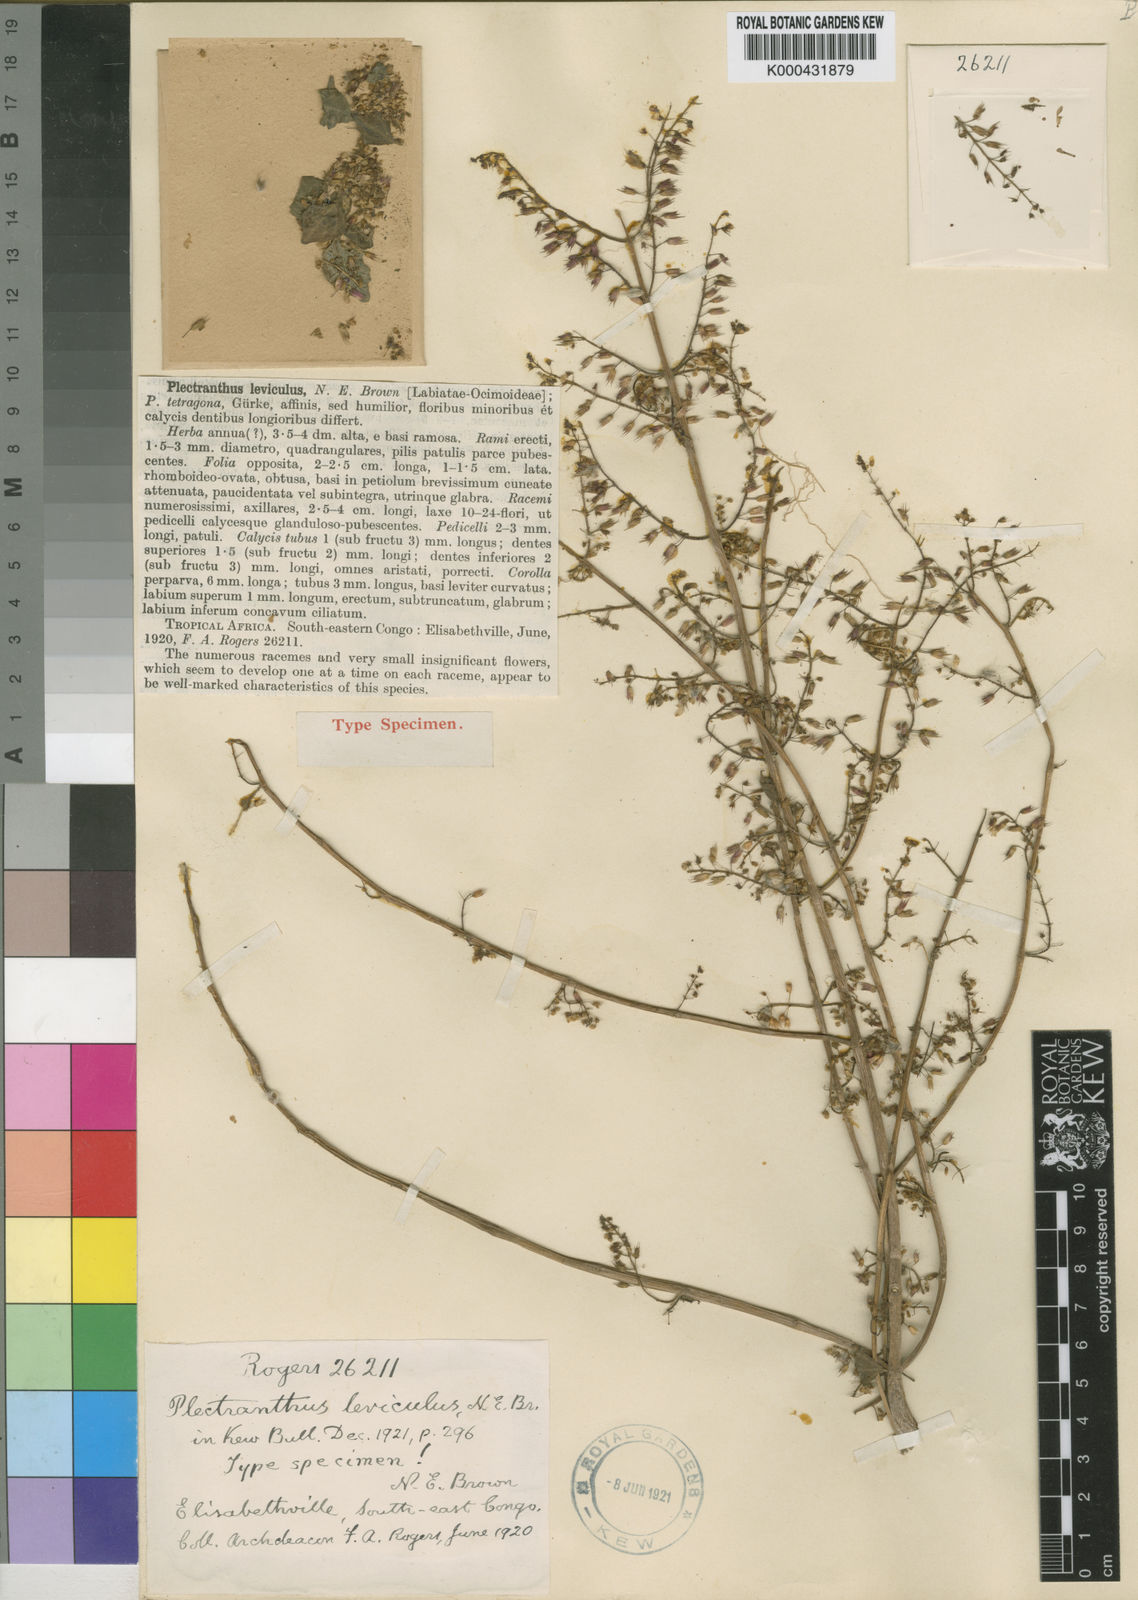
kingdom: Plantae
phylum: Tracheophyta
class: Magnoliopsida
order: Lamiales
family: Lamiaceae
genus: Coleus
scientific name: Coleus efoliatus
